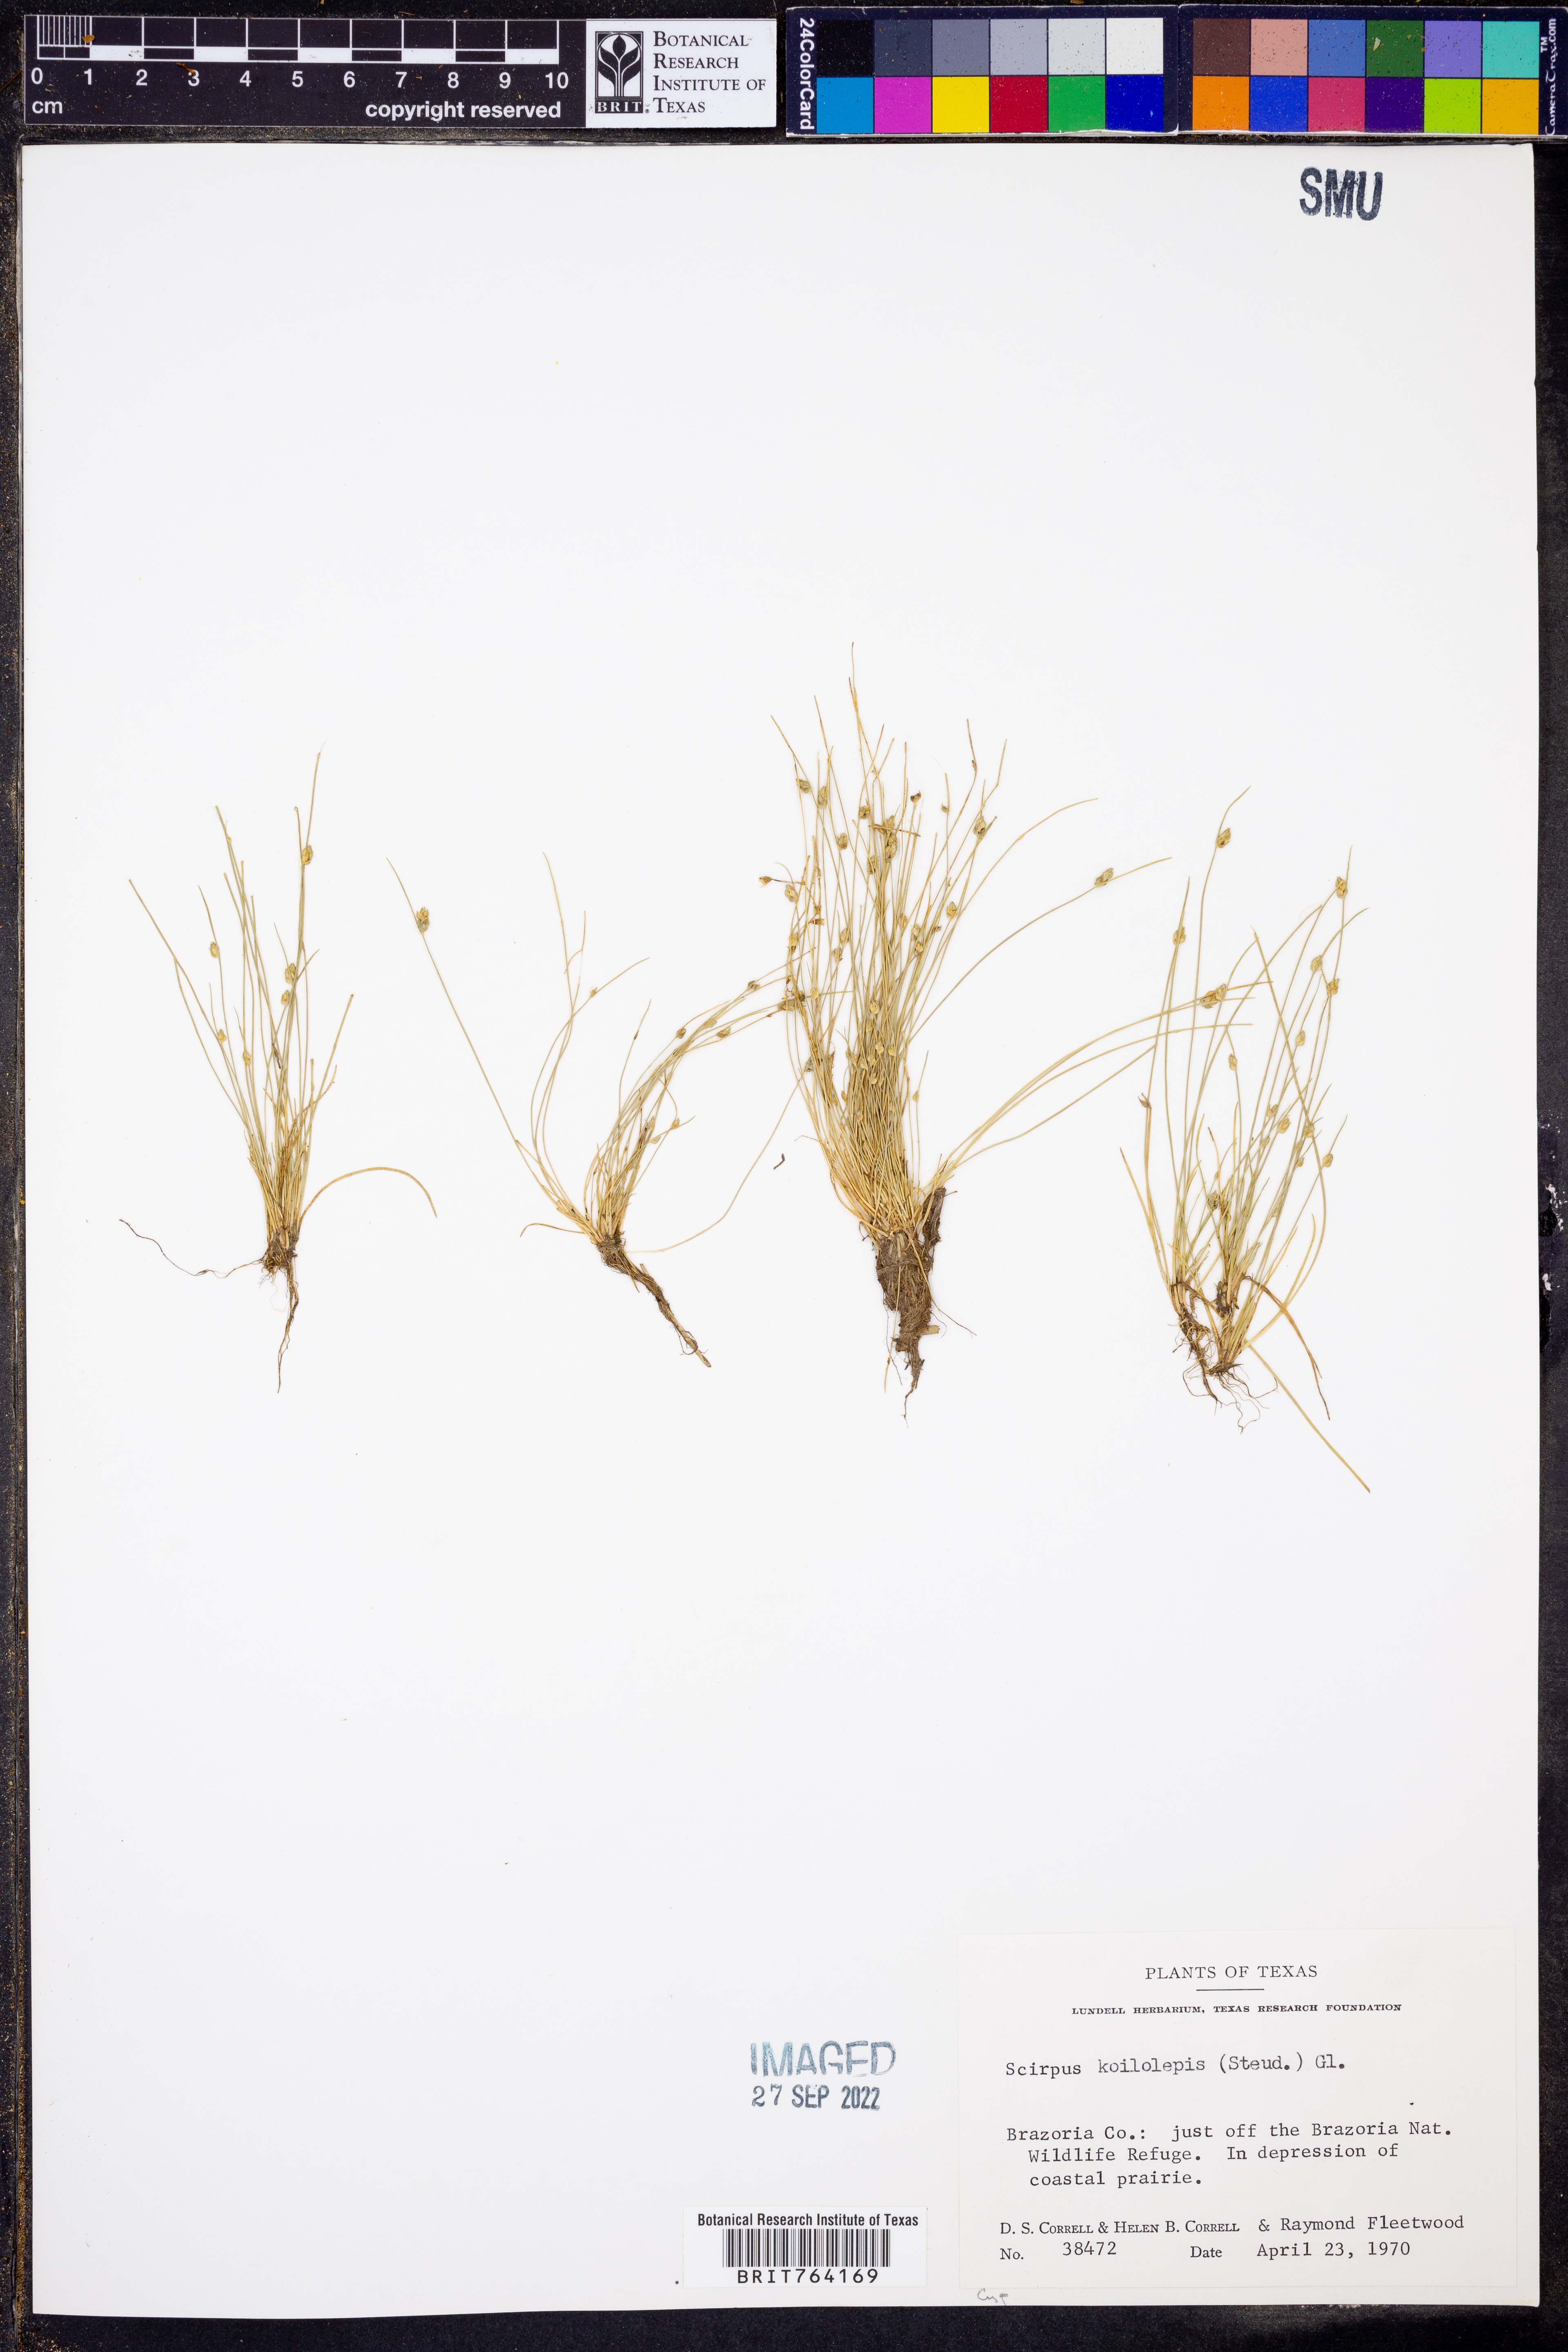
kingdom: Plantae
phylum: Tracheophyta
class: Liliopsida
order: Poales
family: Cyperaceae
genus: Isolepis
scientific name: Isolepis carinata
